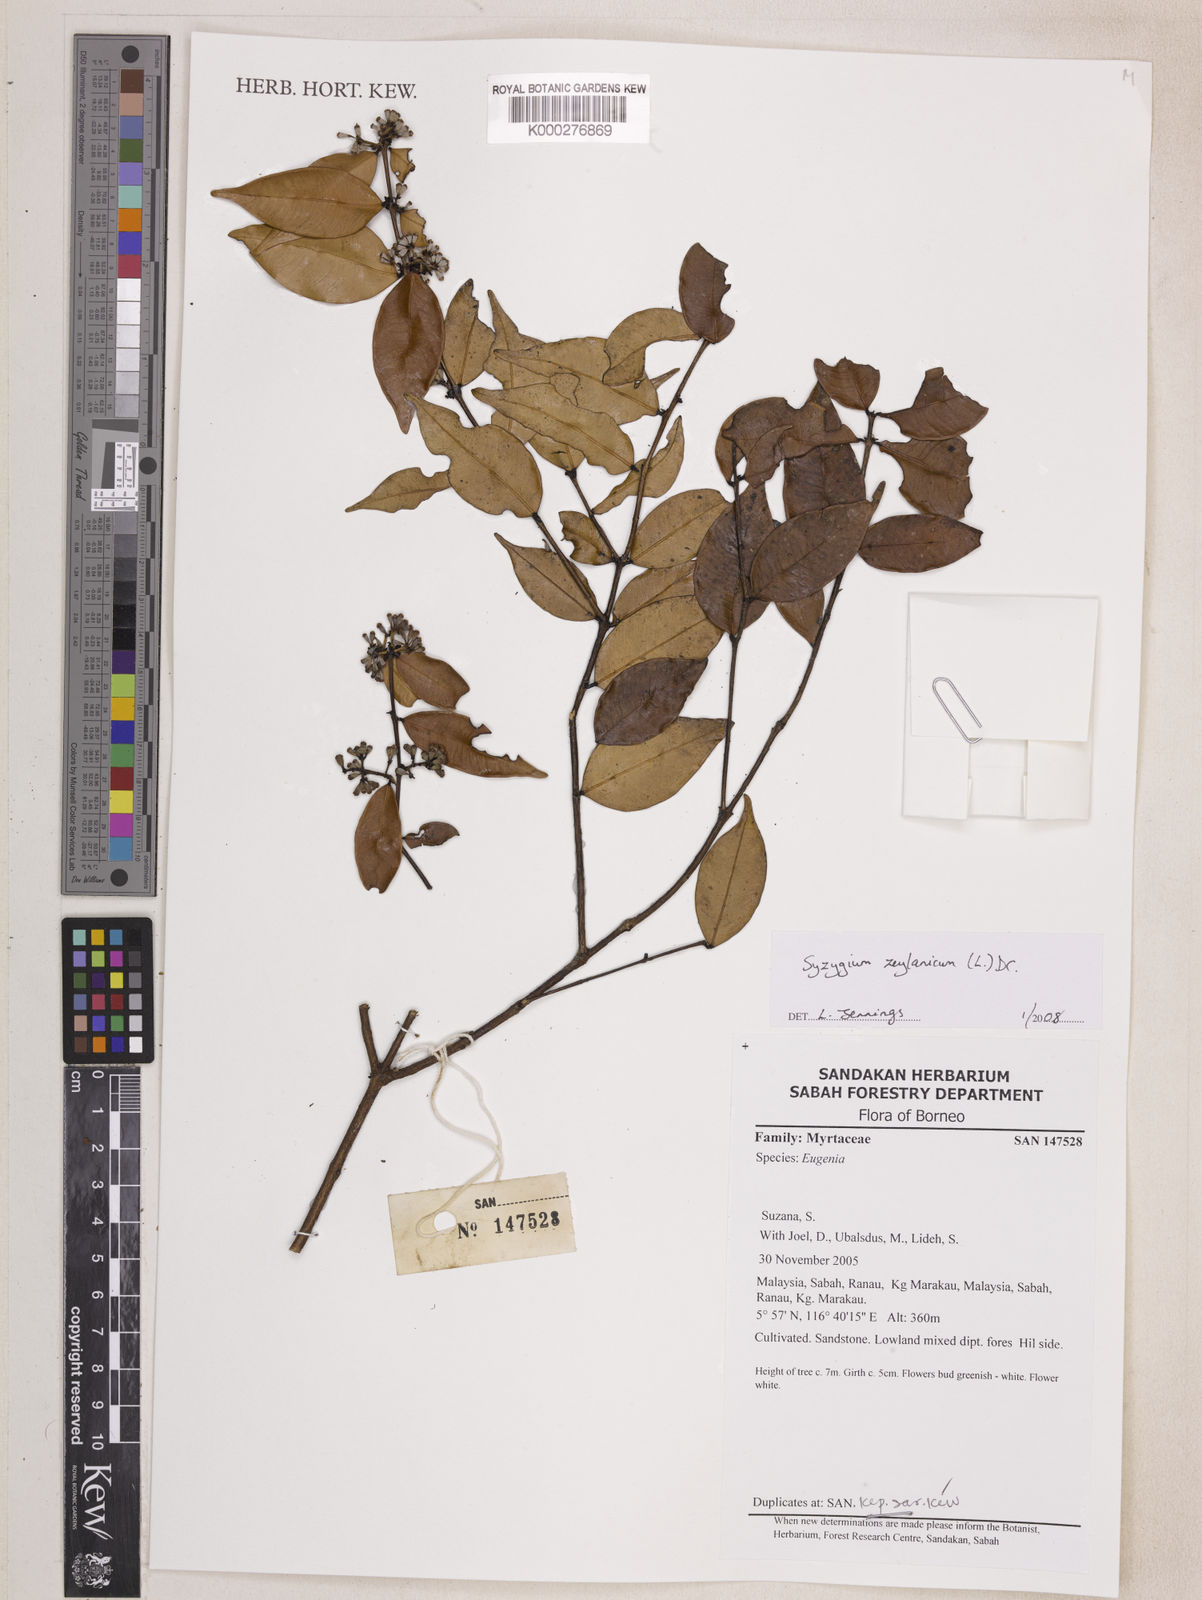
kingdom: Plantae
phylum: Tracheophyta
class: Magnoliopsida
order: Myrtales
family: Myrtaceae
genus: Syzygium
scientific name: Syzygium zeylanicum
